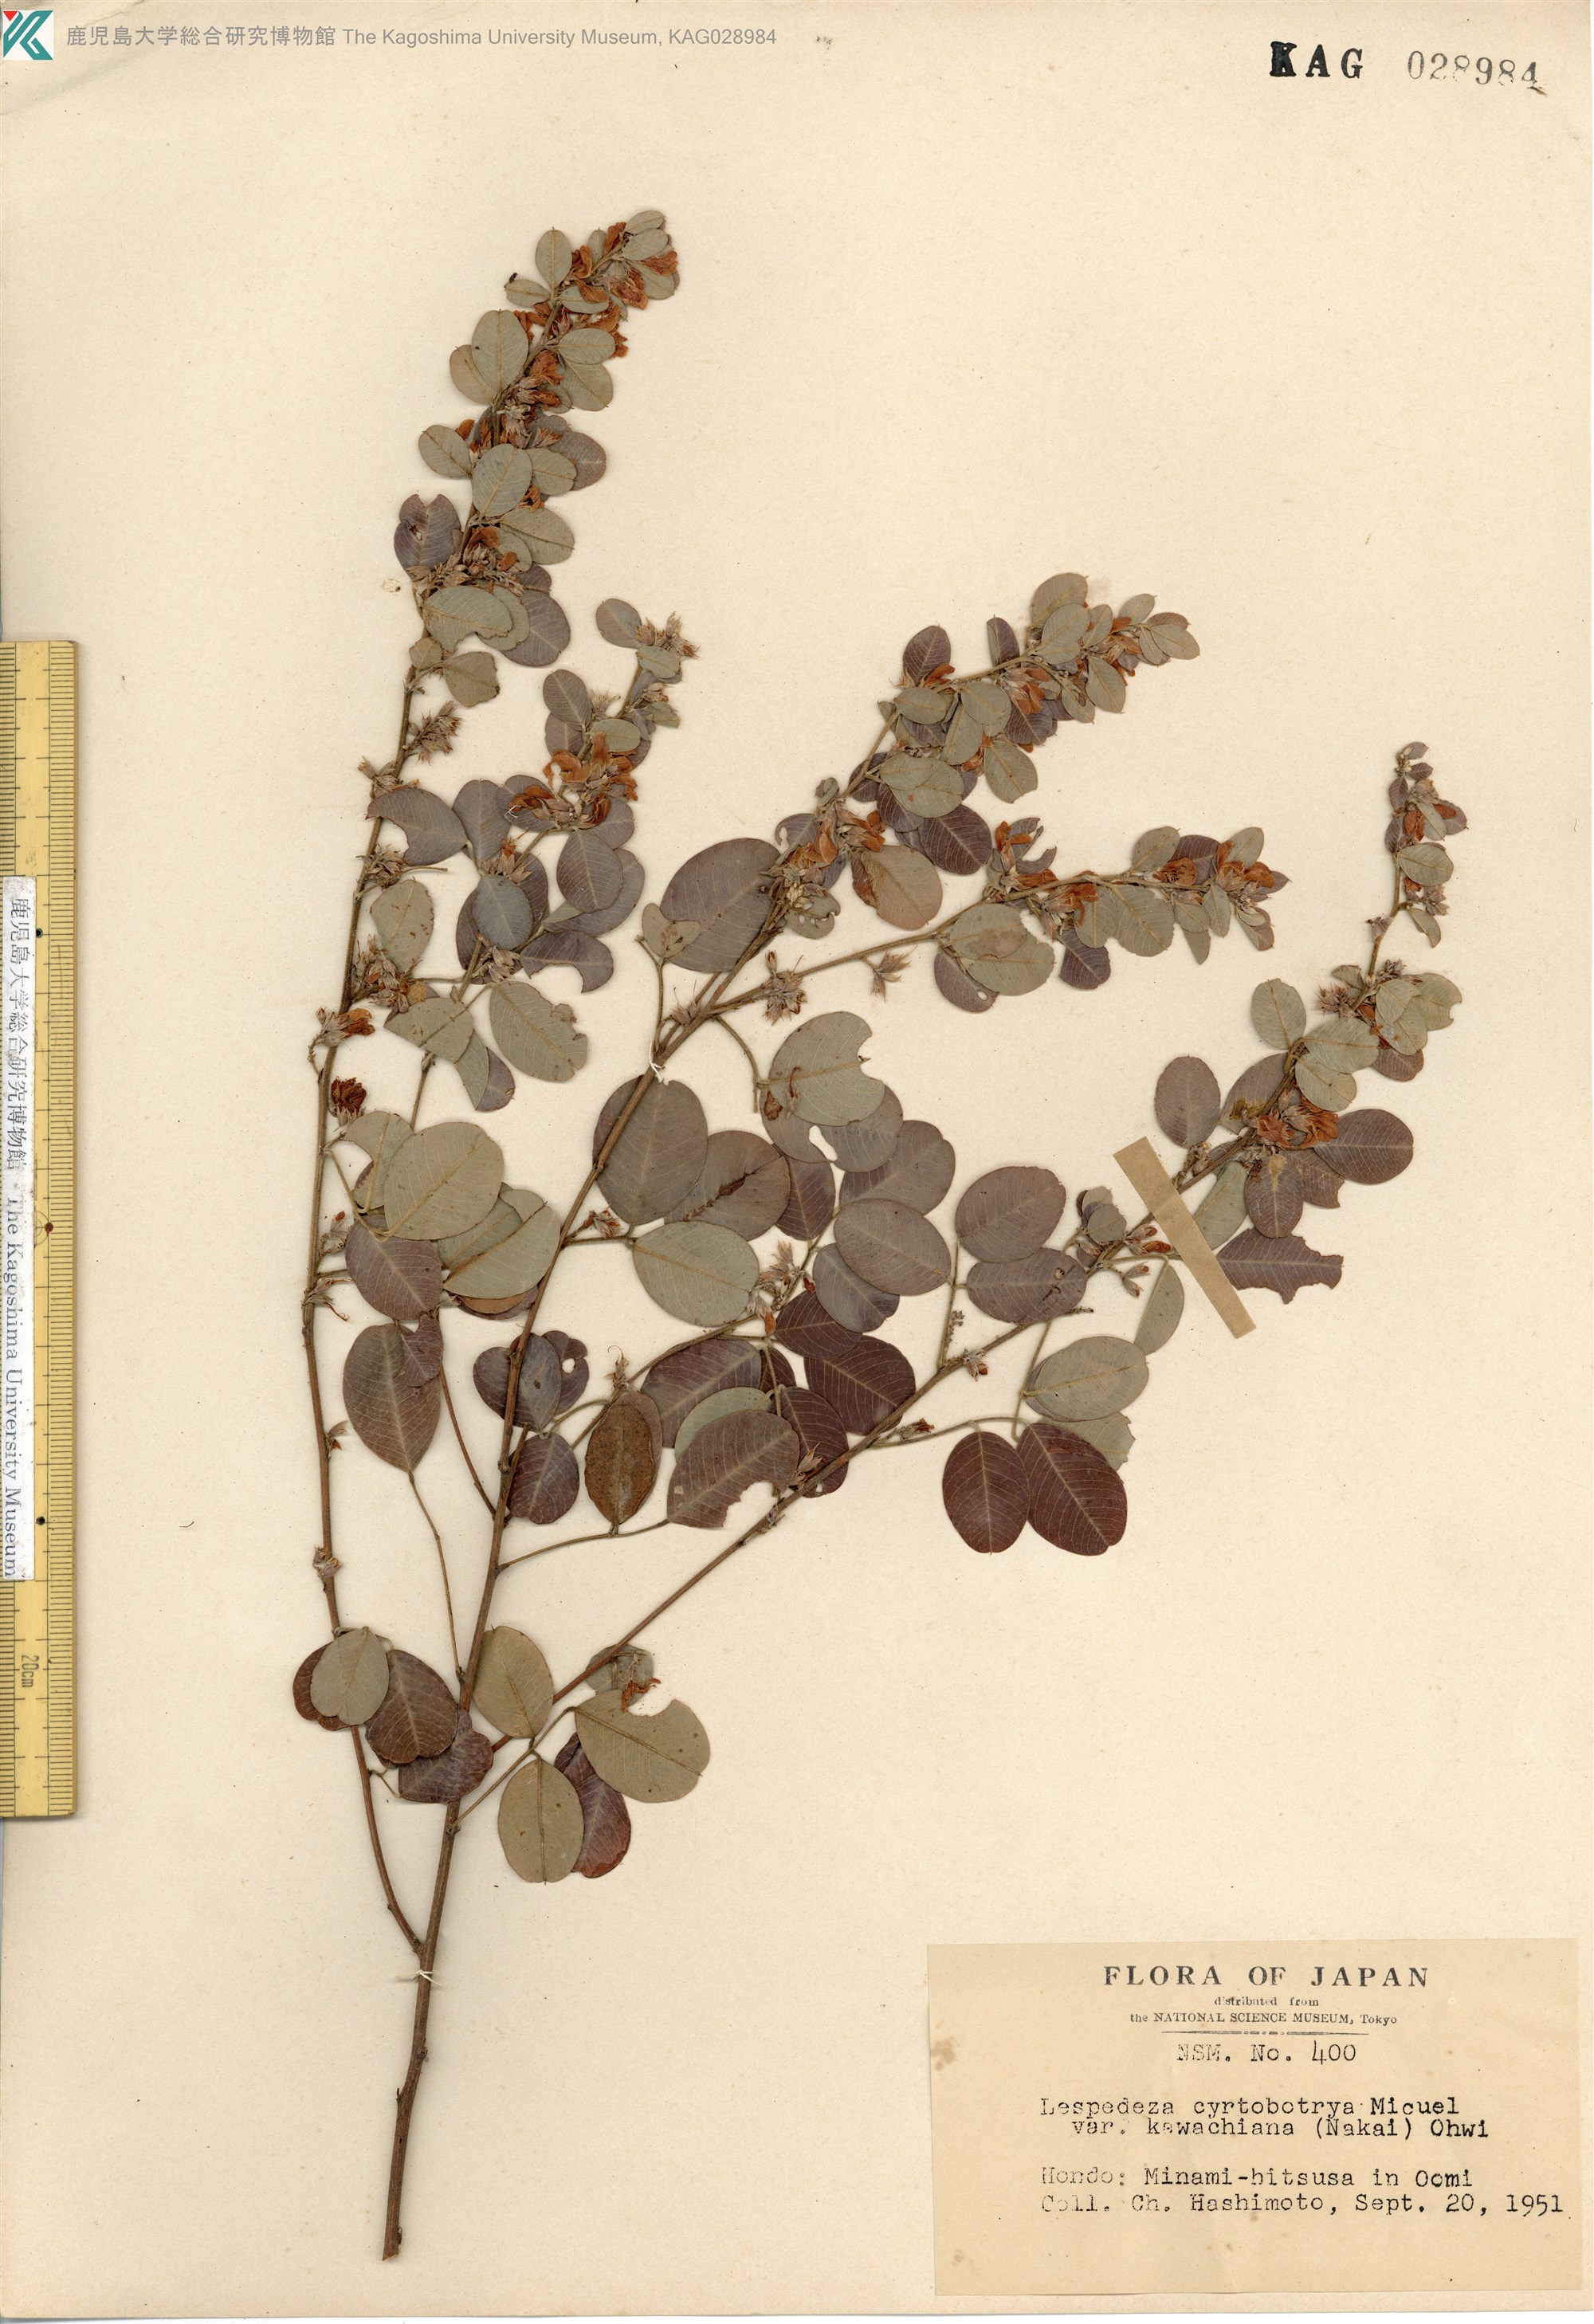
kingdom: Plantae
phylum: Tracheophyta
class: Magnoliopsida
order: Fabales
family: Fabaceae
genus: Lespedeza
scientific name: Lespedeza cyrtobotrya
